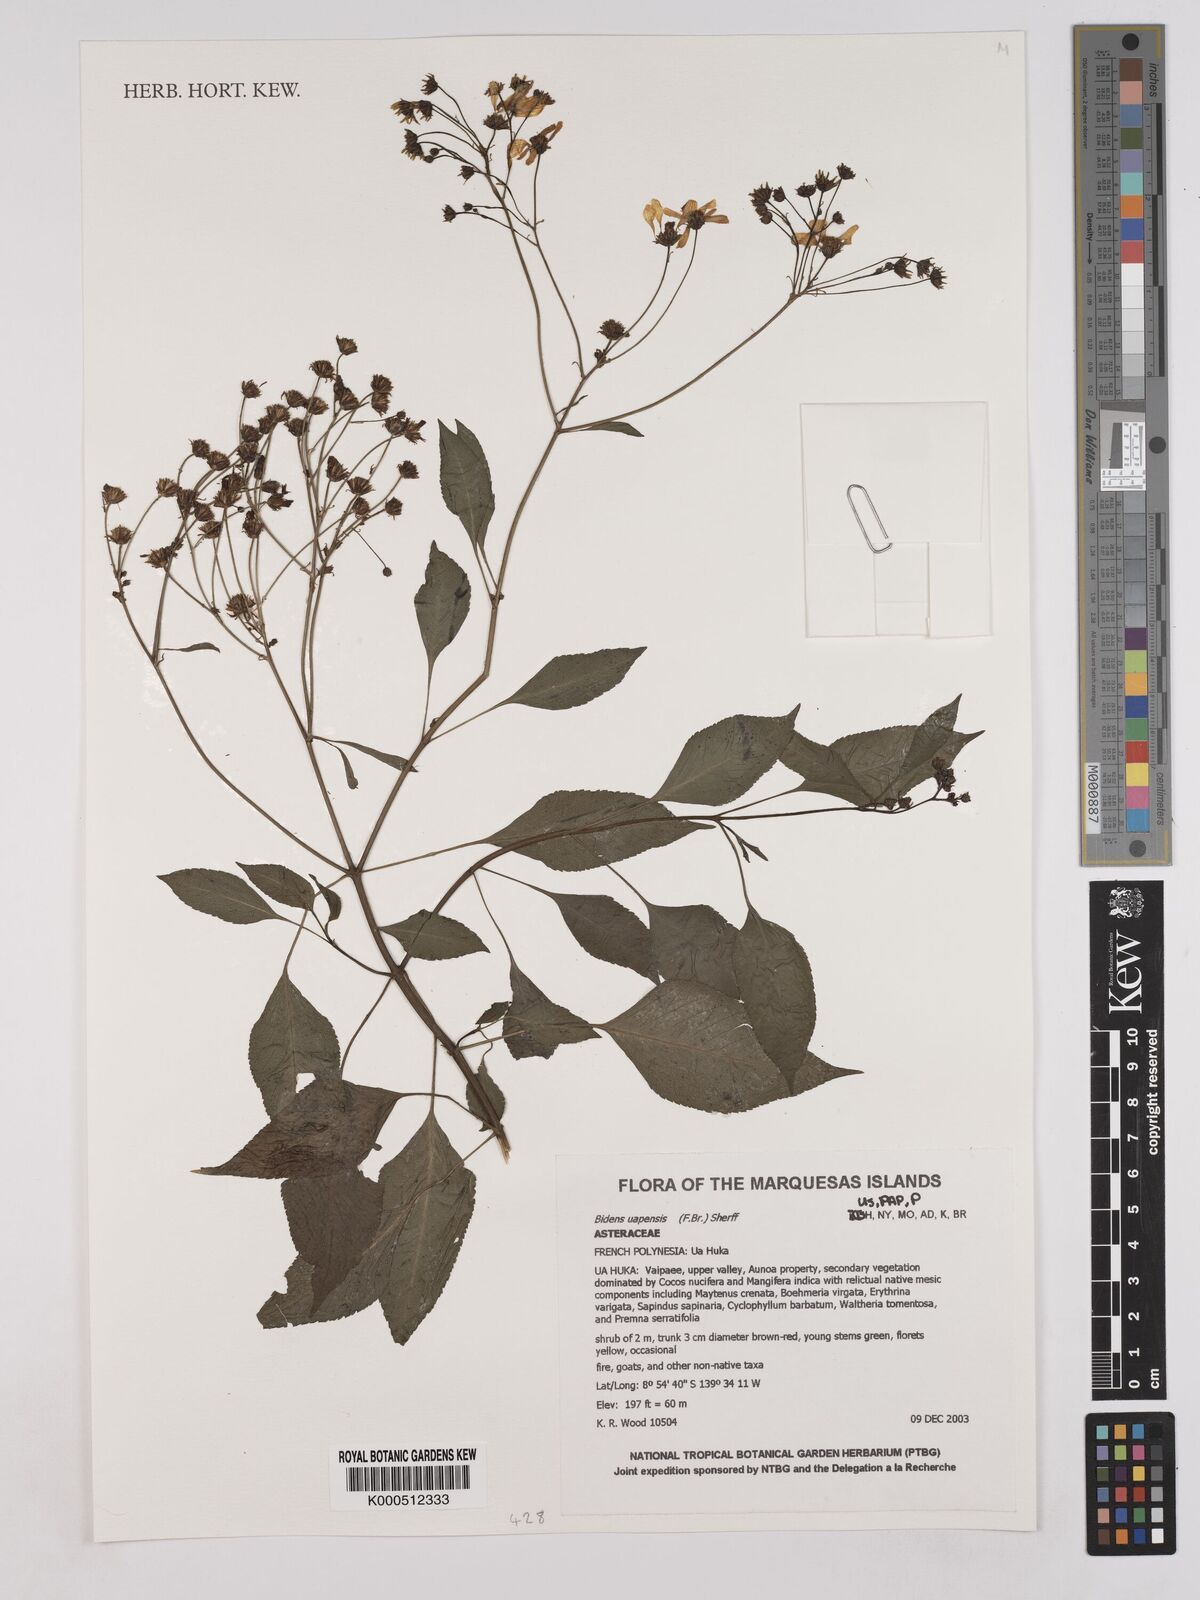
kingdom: Plantae
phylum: Tracheophyta
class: Magnoliopsida
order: Asterales
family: Asteraceae
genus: Bidens
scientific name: Bidens uapensis
